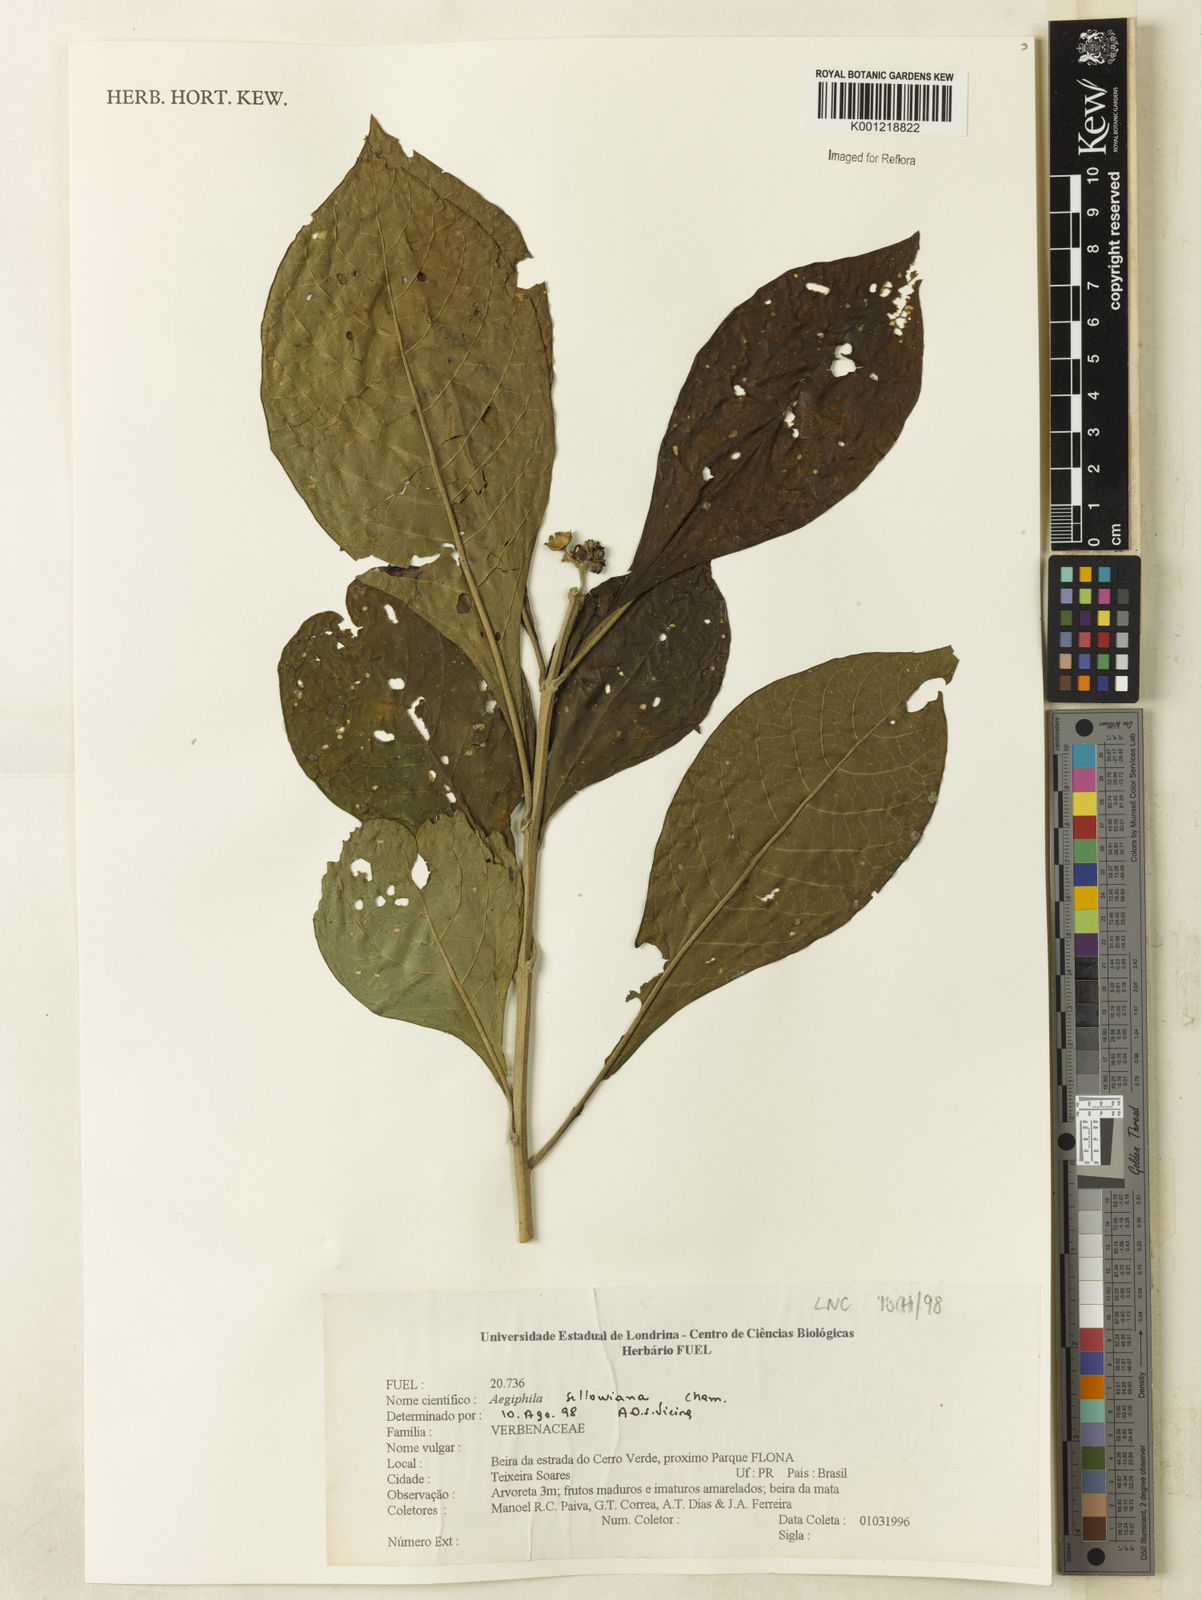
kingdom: Plantae
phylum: Tracheophyta
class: Magnoliopsida
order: Lamiales
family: Lamiaceae
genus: Aegiphila
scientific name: Aegiphila verticillata
